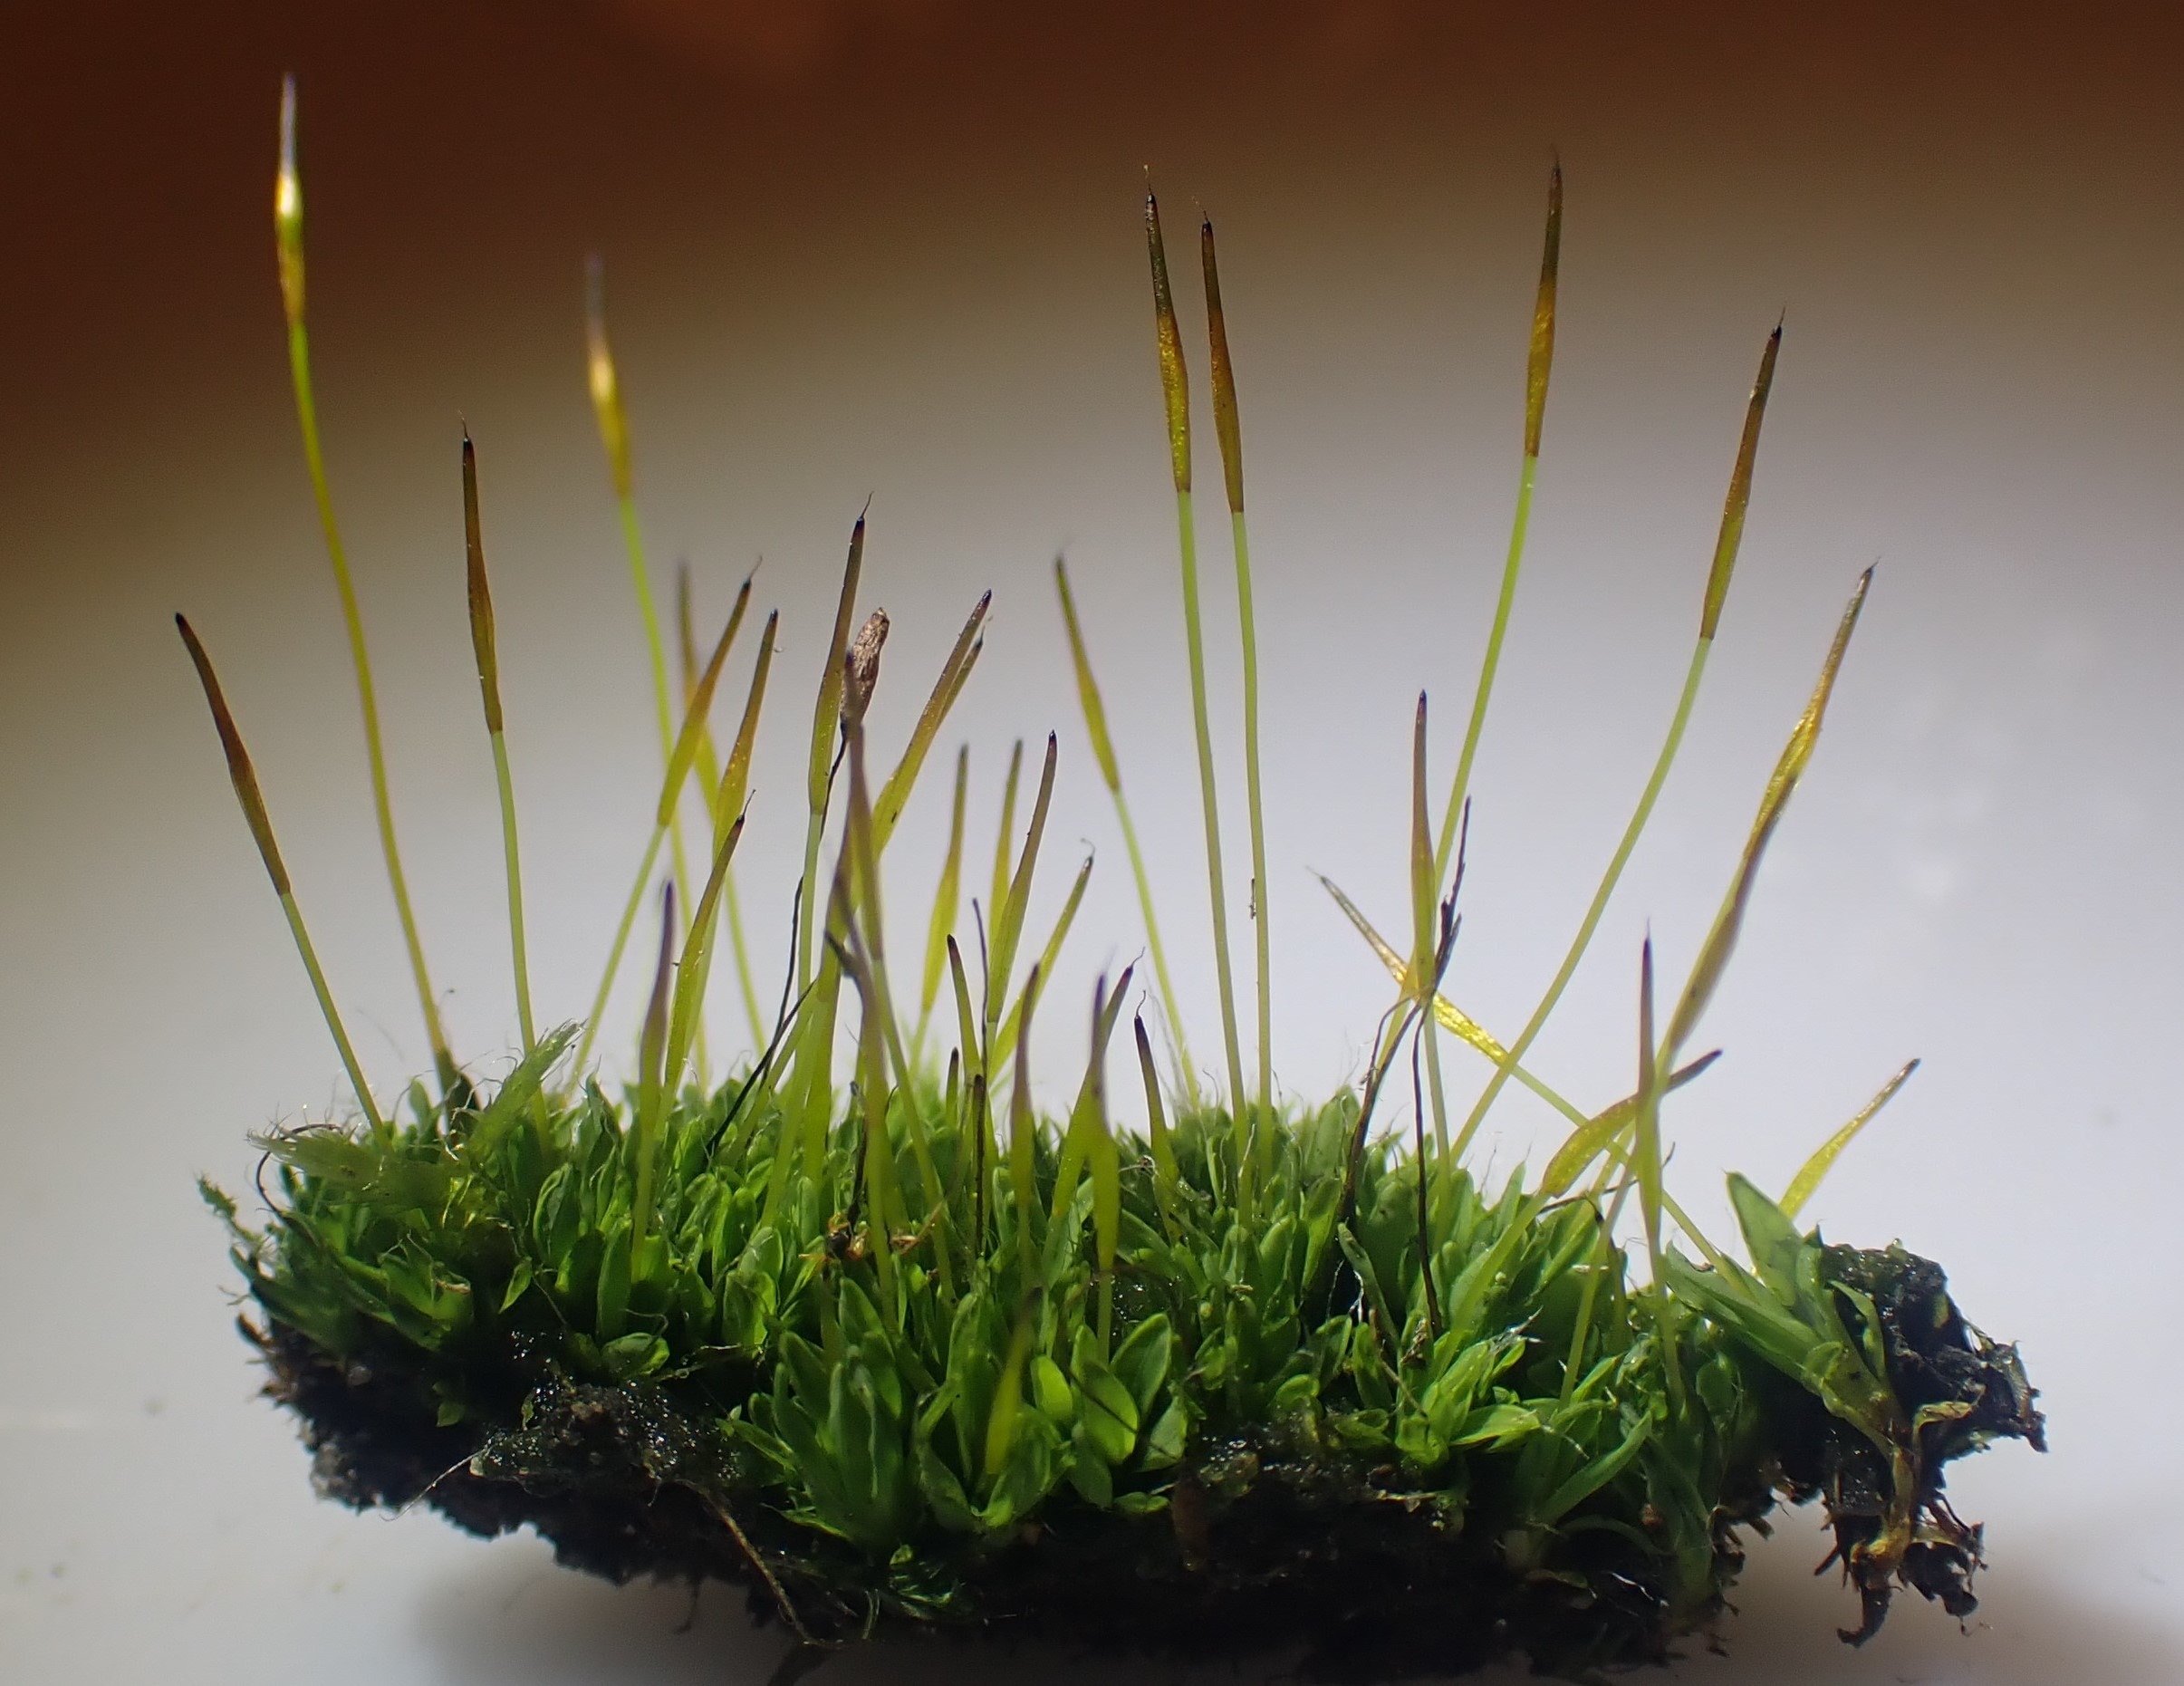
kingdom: Plantae
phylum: Bryophyta
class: Bryopsida
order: Pottiales
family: Pottiaceae
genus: Tortula
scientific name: Tortula muralis
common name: Mur-snotand
